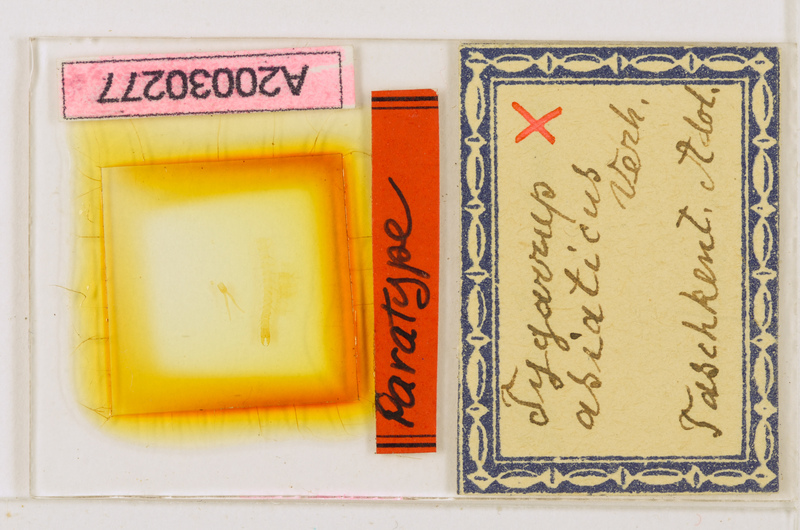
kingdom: Animalia
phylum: Arthropoda
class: Chilopoda
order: Geophilomorpha
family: Mecistocephalidae
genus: Krateraspis
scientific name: Krateraspis meinerti
